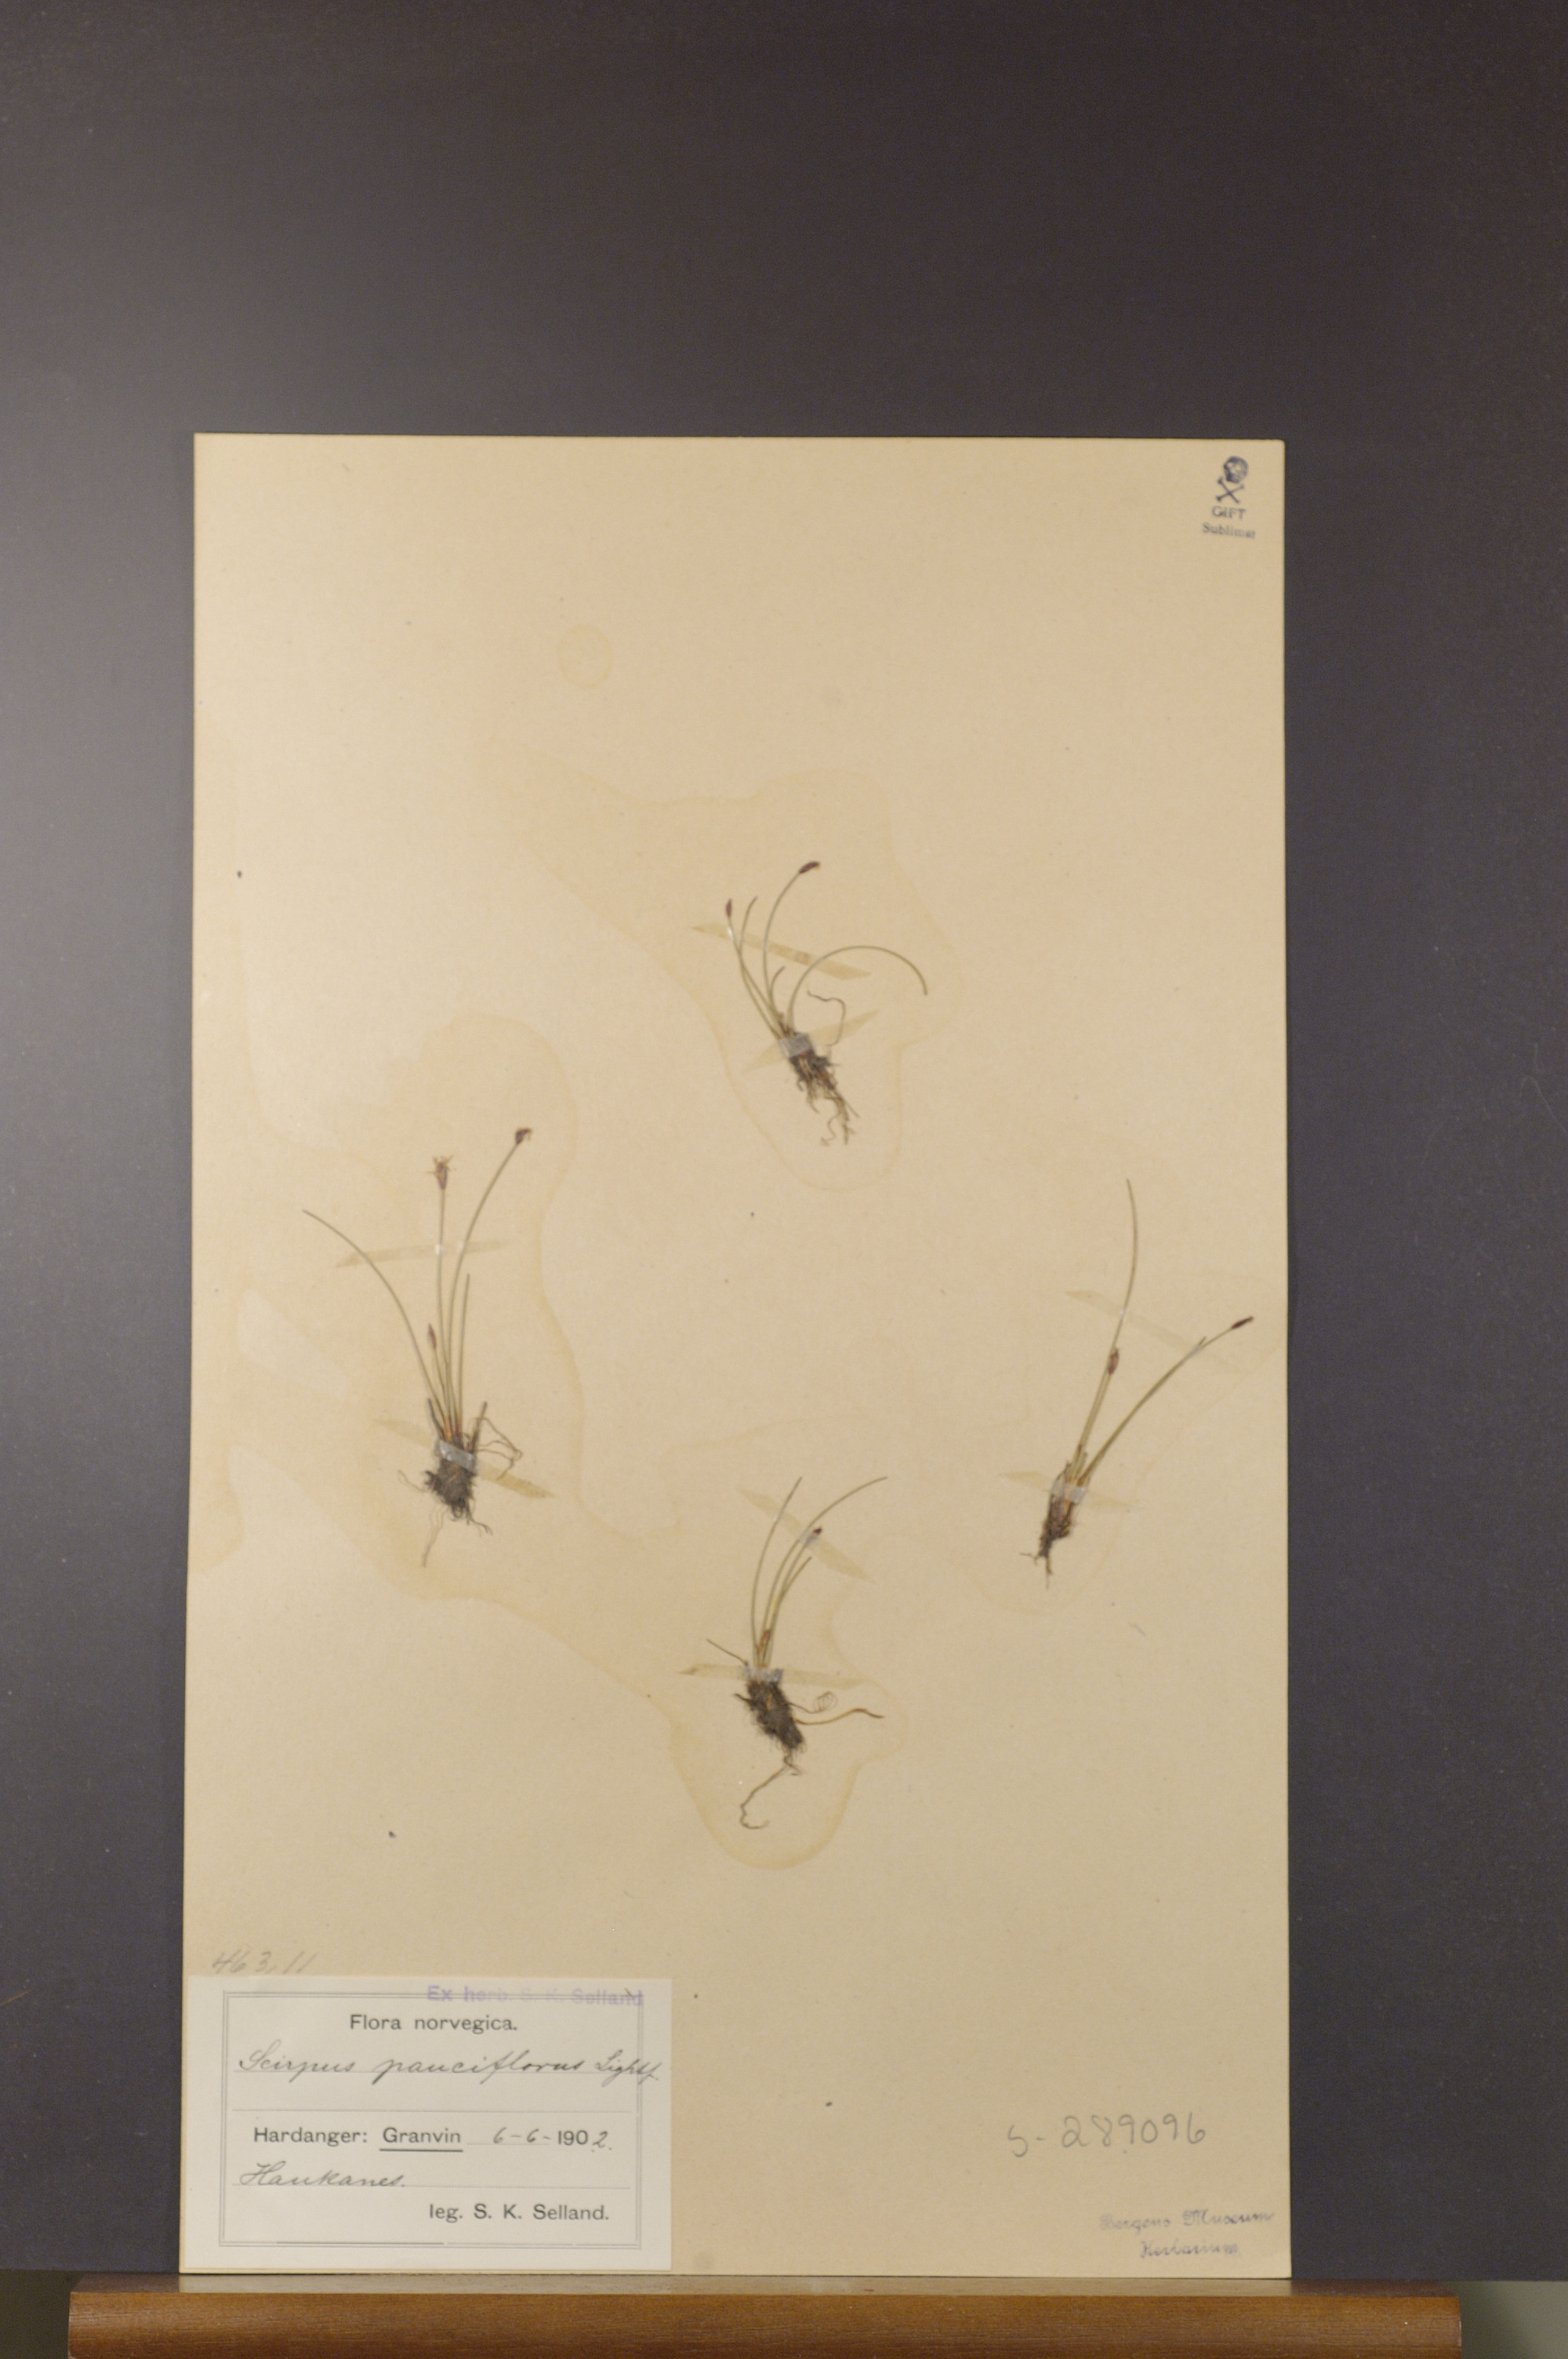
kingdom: Plantae
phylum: Tracheophyta
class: Liliopsida
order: Poales
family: Cyperaceae
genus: Eleocharis
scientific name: Eleocharis quinqueflora
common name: Few-flowered spike-rush
